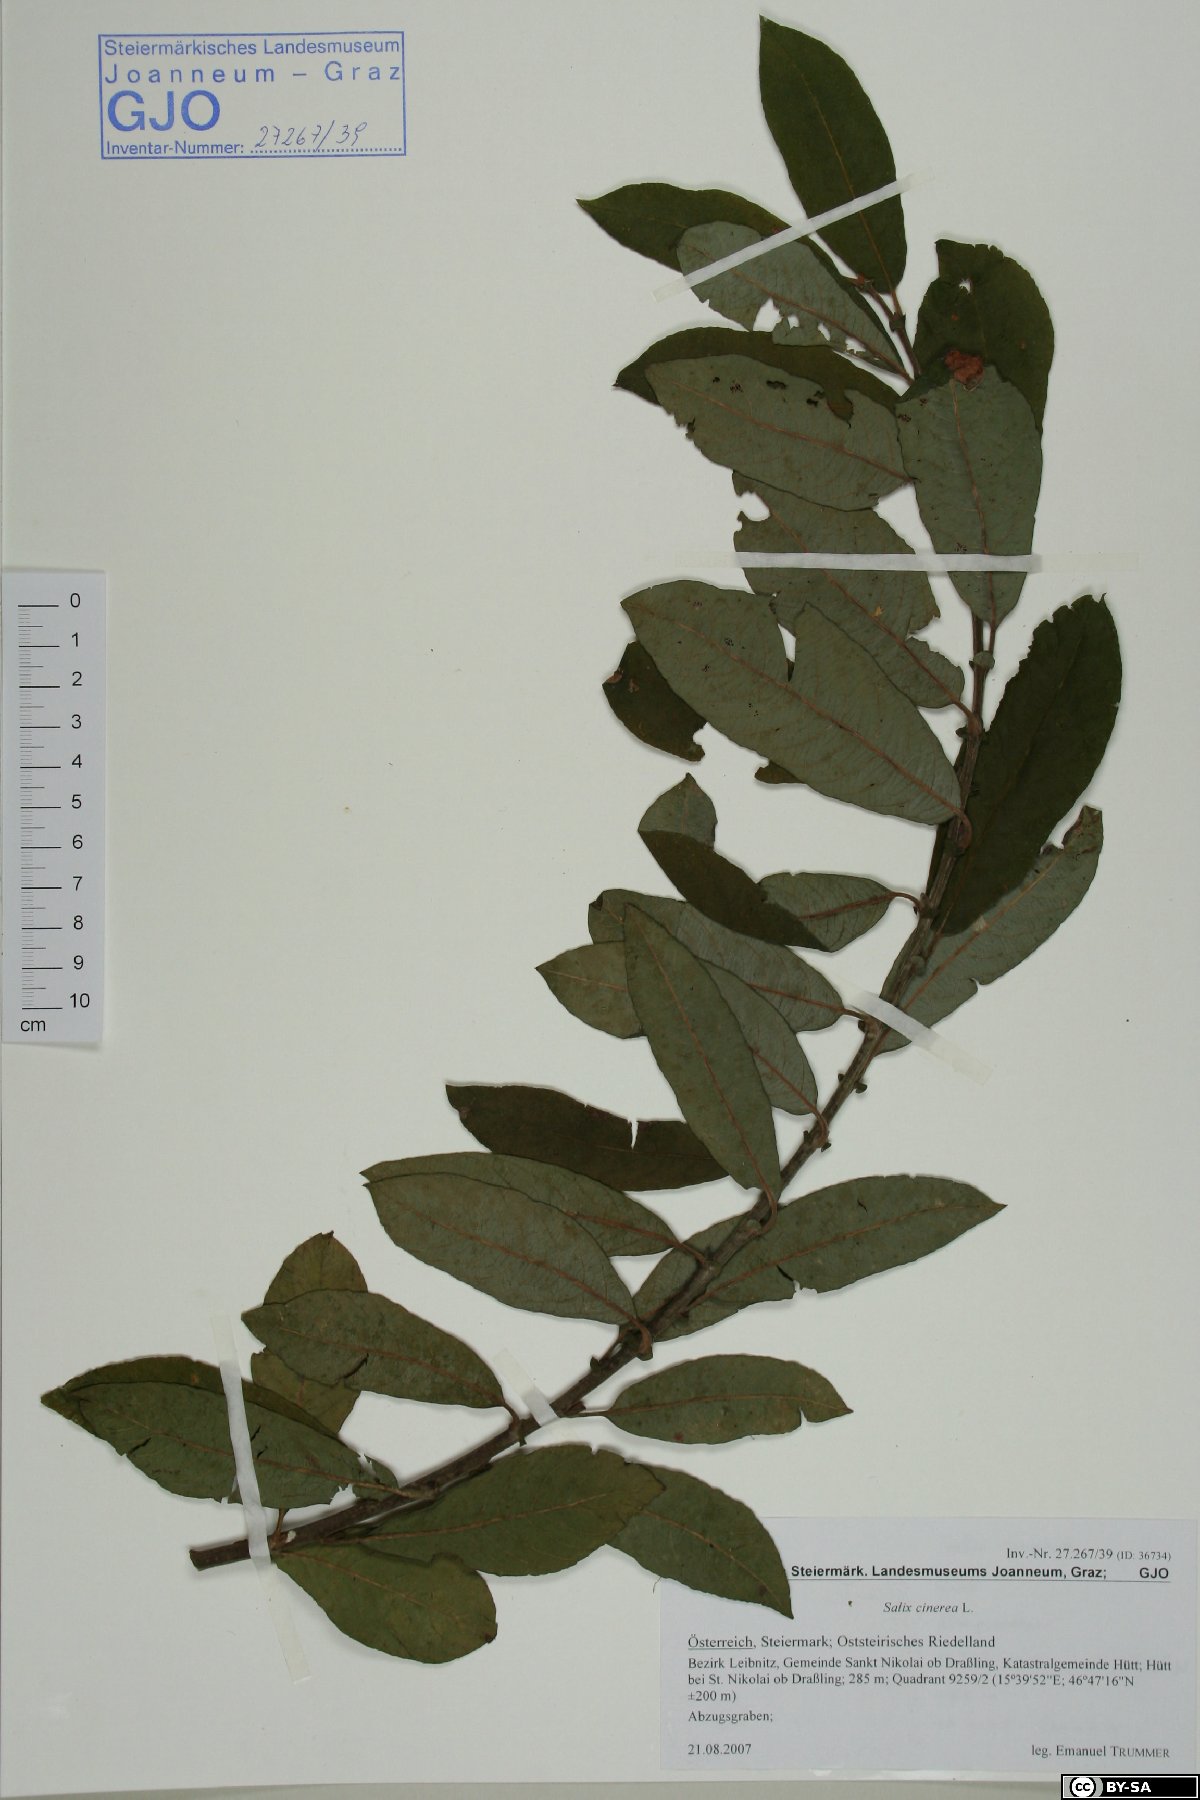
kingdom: Plantae
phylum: Tracheophyta
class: Magnoliopsida
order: Malpighiales
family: Salicaceae
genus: Salix
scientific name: Salix cinerea
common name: Common sallow
